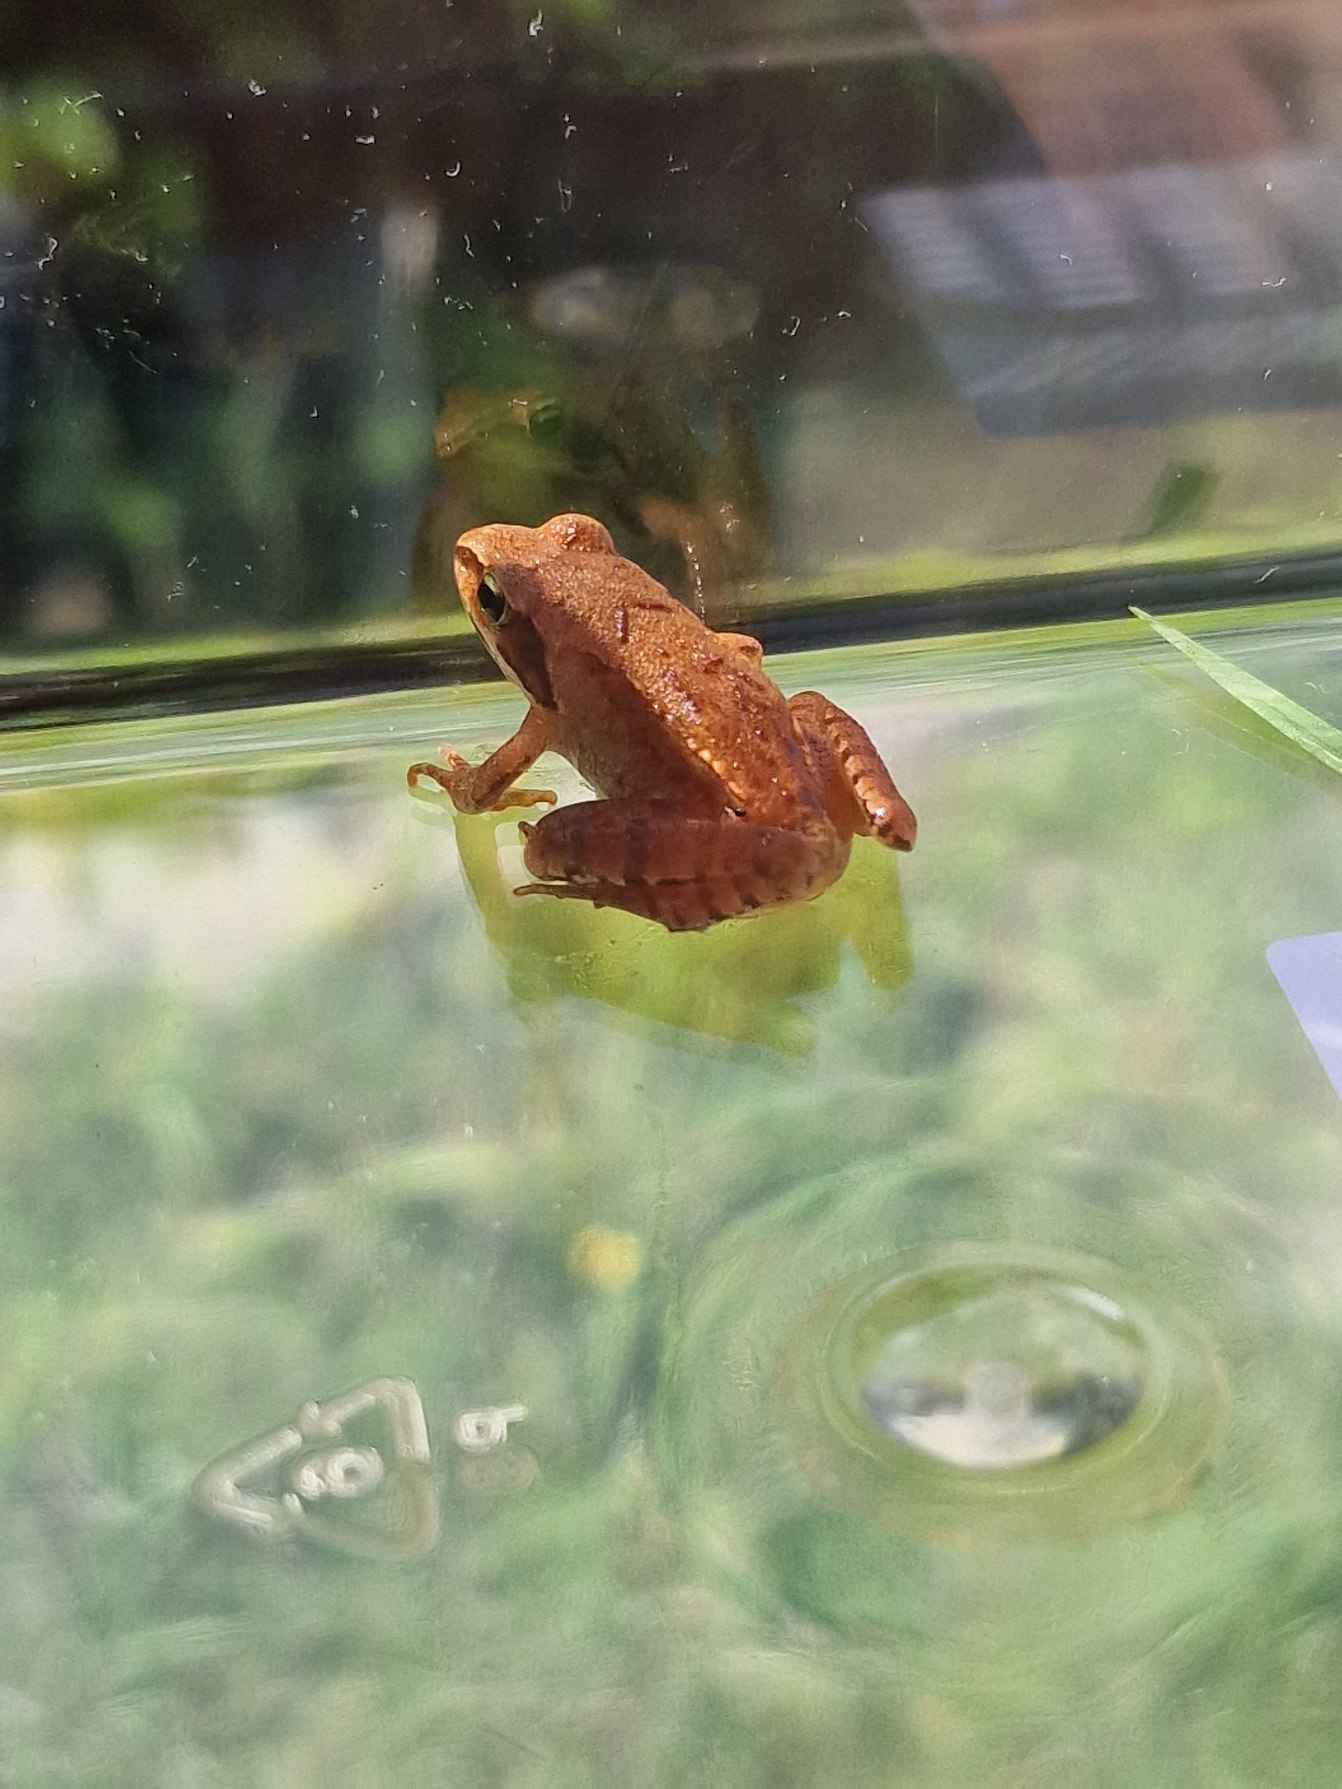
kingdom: Animalia
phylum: Chordata
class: Amphibia
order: Anura
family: Ranidae
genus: Rana
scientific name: Rana dalmatina
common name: Springfrø
